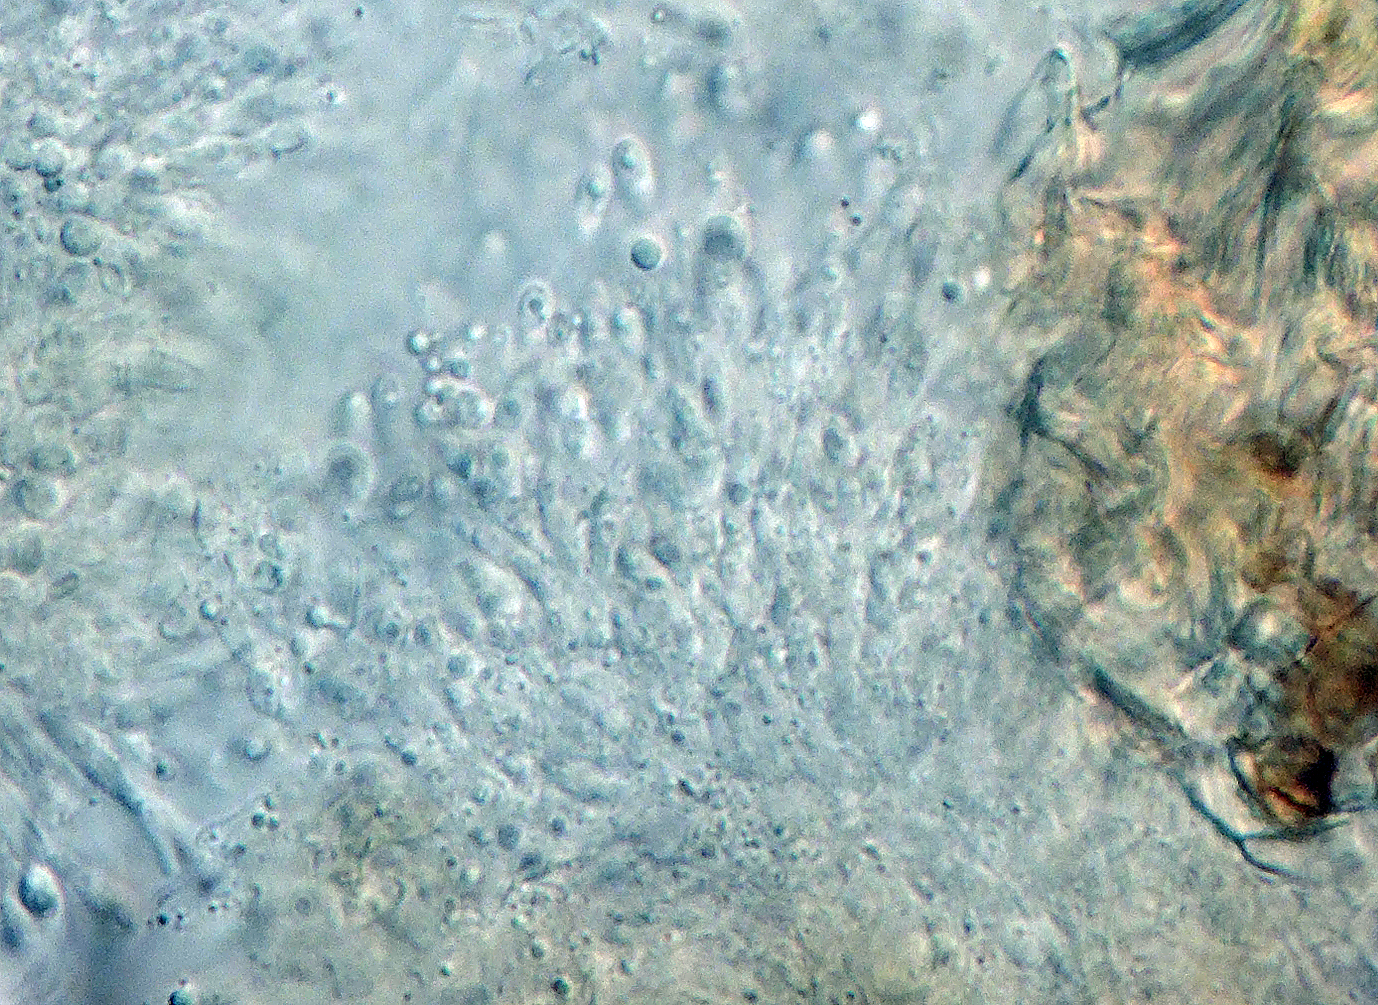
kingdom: Fungi
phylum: Ascomycota
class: Sordariomycetes
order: Diaporthales
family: Diaporthaceae
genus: Phomopsis
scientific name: Phomopsis tamaricaria
